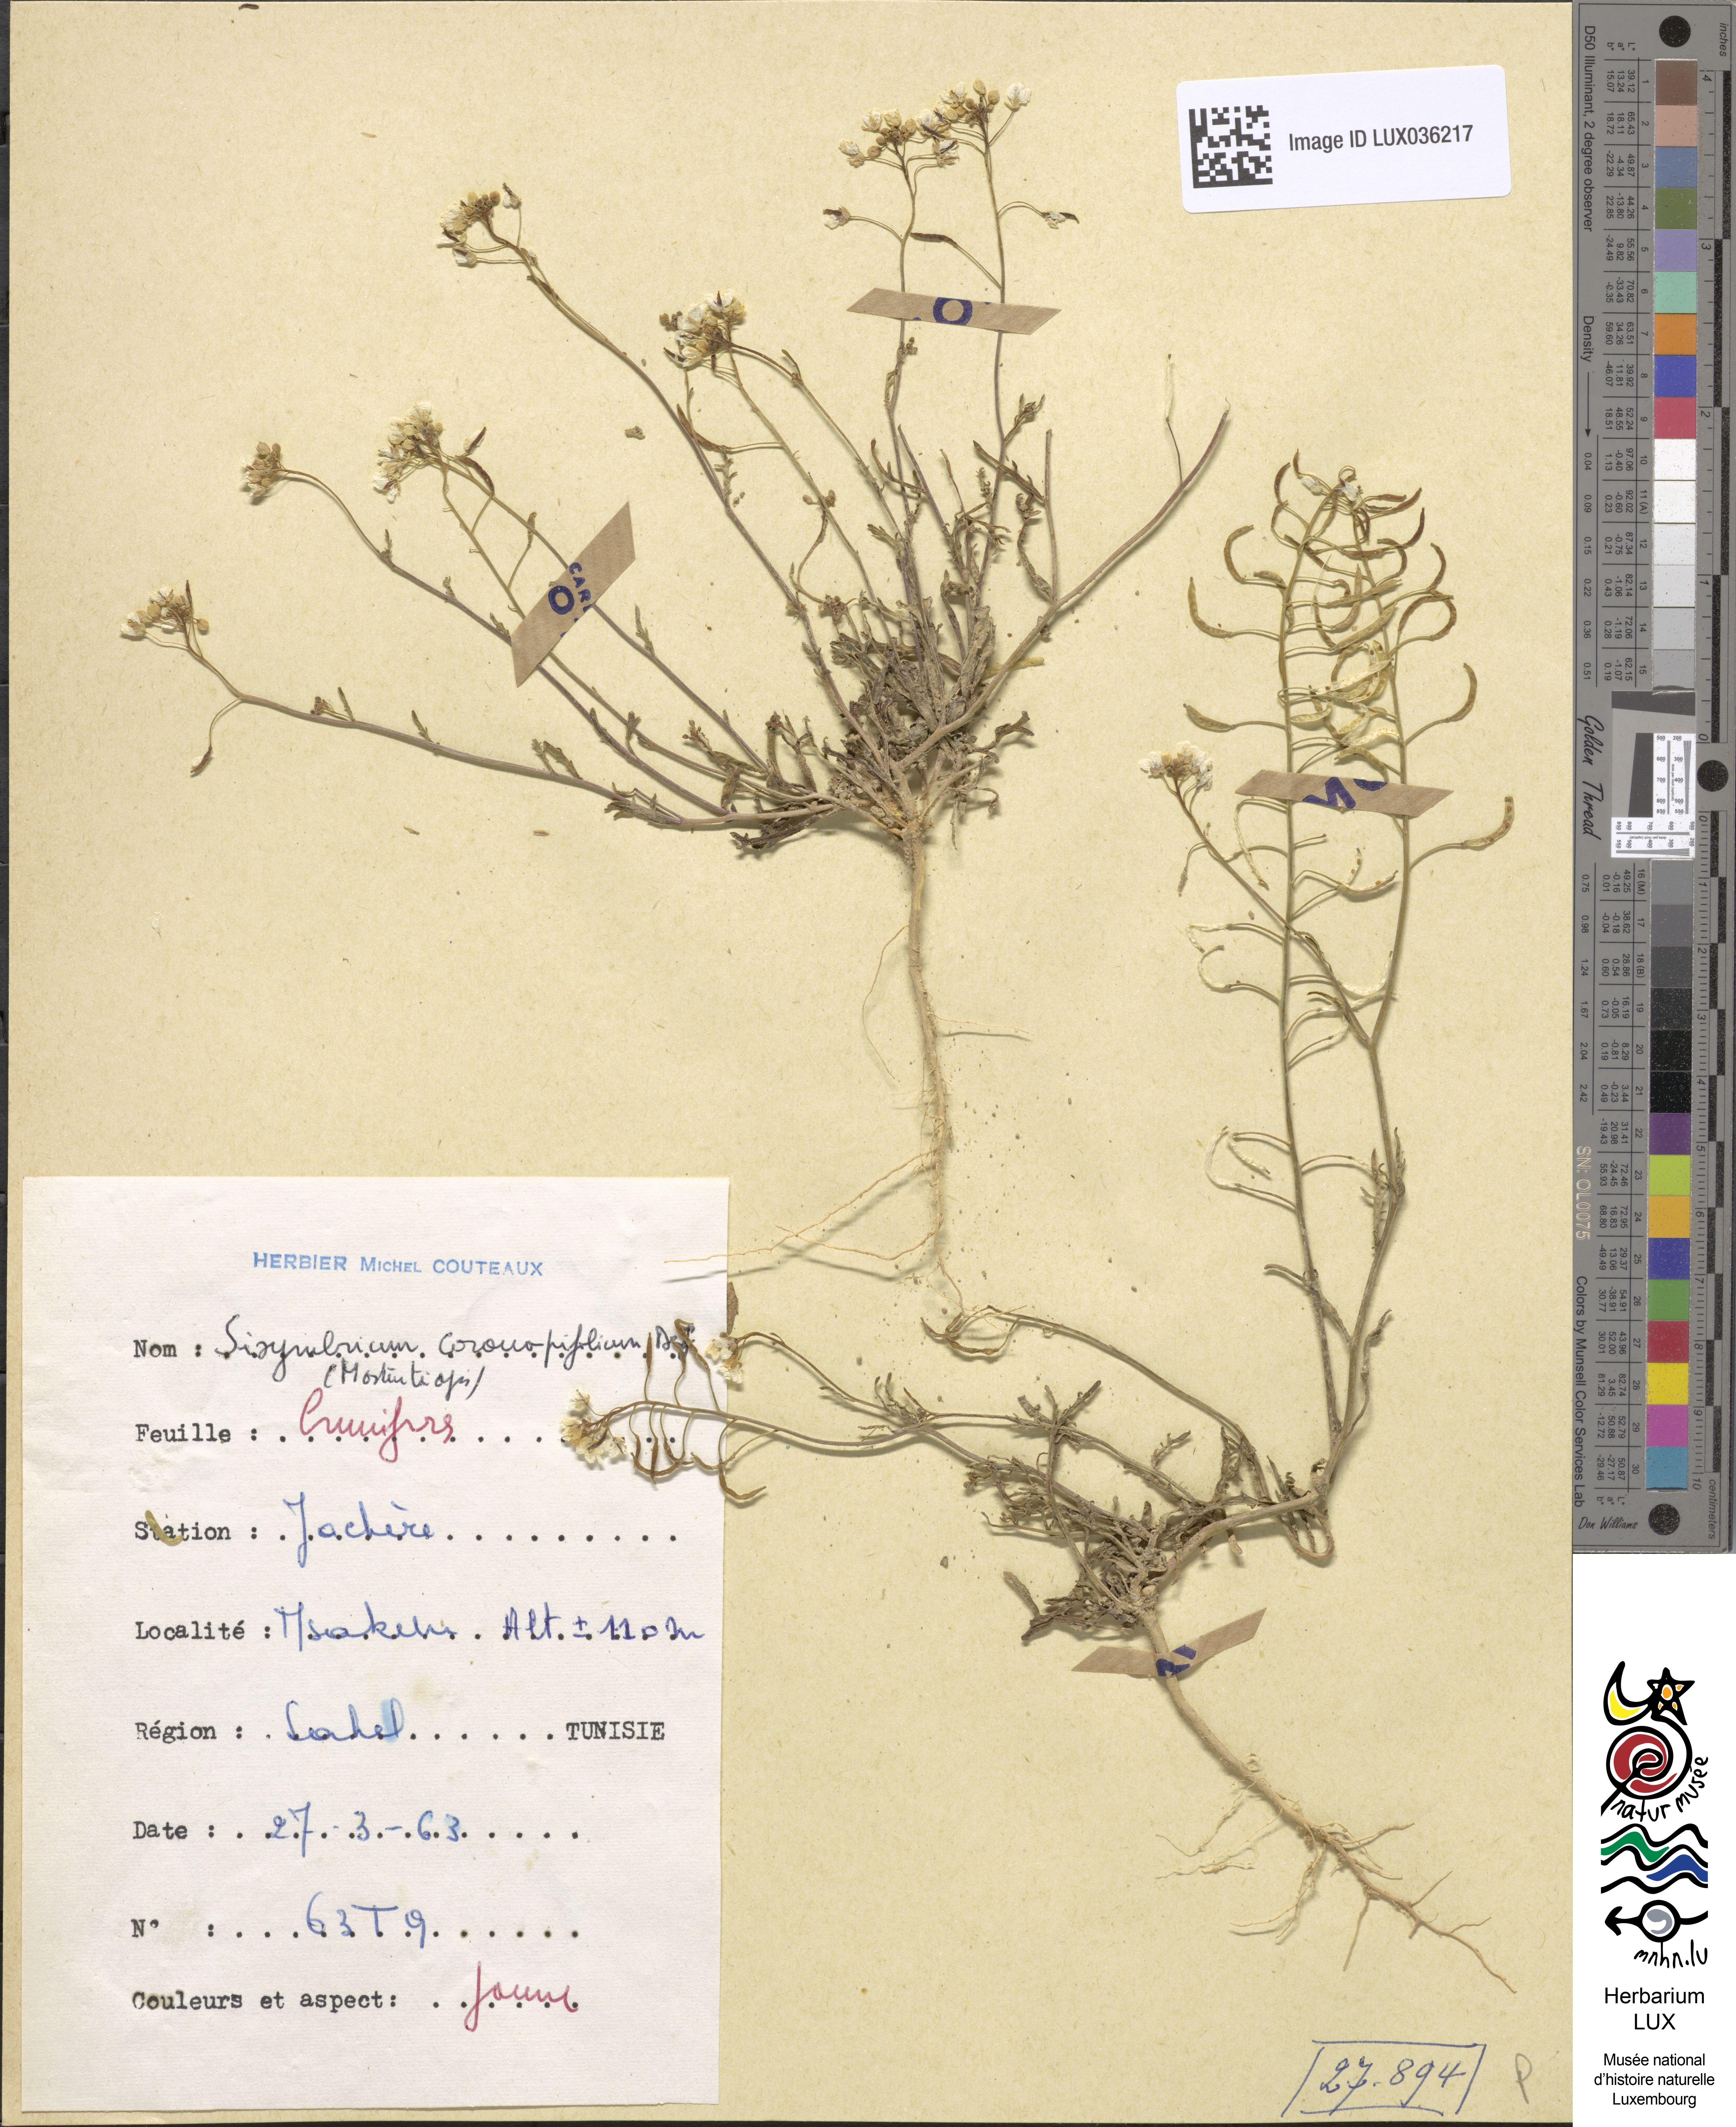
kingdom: Plantae
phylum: Tracheophyta
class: Magnoliopsida
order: Brassicales
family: Brassicaceae
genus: Nasturtiopsis
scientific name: Nasturtiopsis coronopifolia
